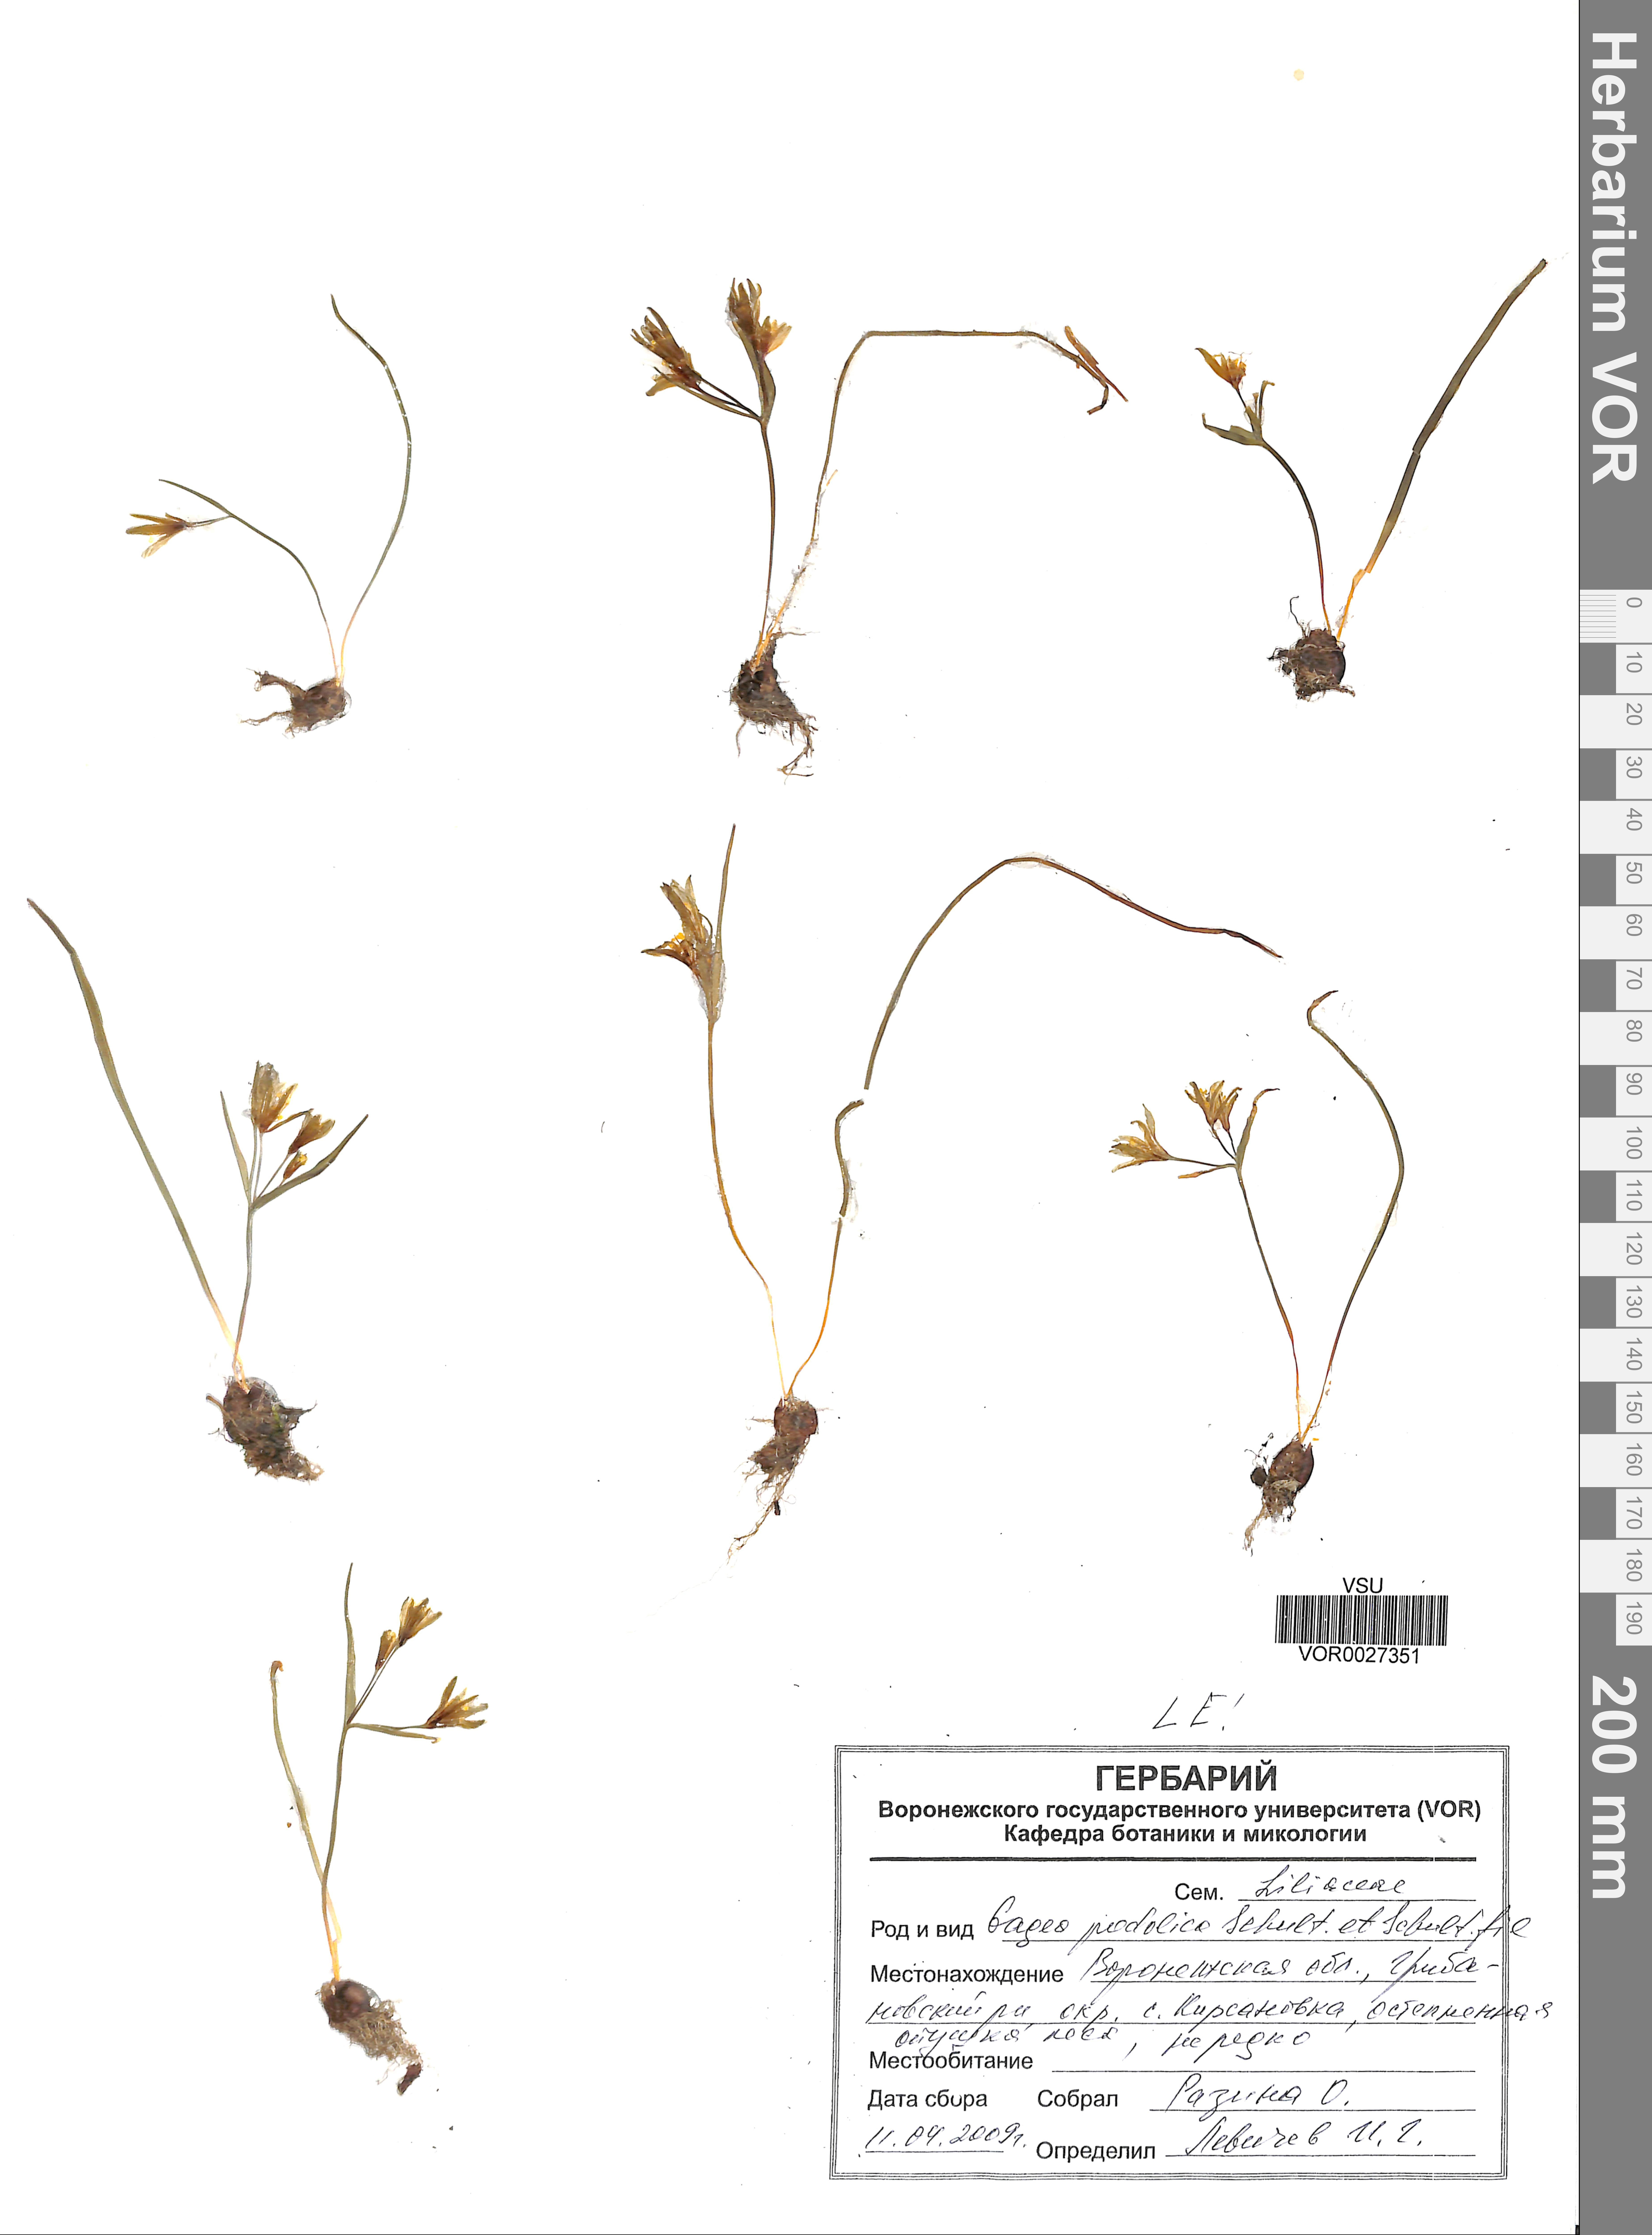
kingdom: Plantae
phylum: Tracheophyta
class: Liliopsida
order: Liliales
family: Liliaceae
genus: Gagea
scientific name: Gagea podolica
